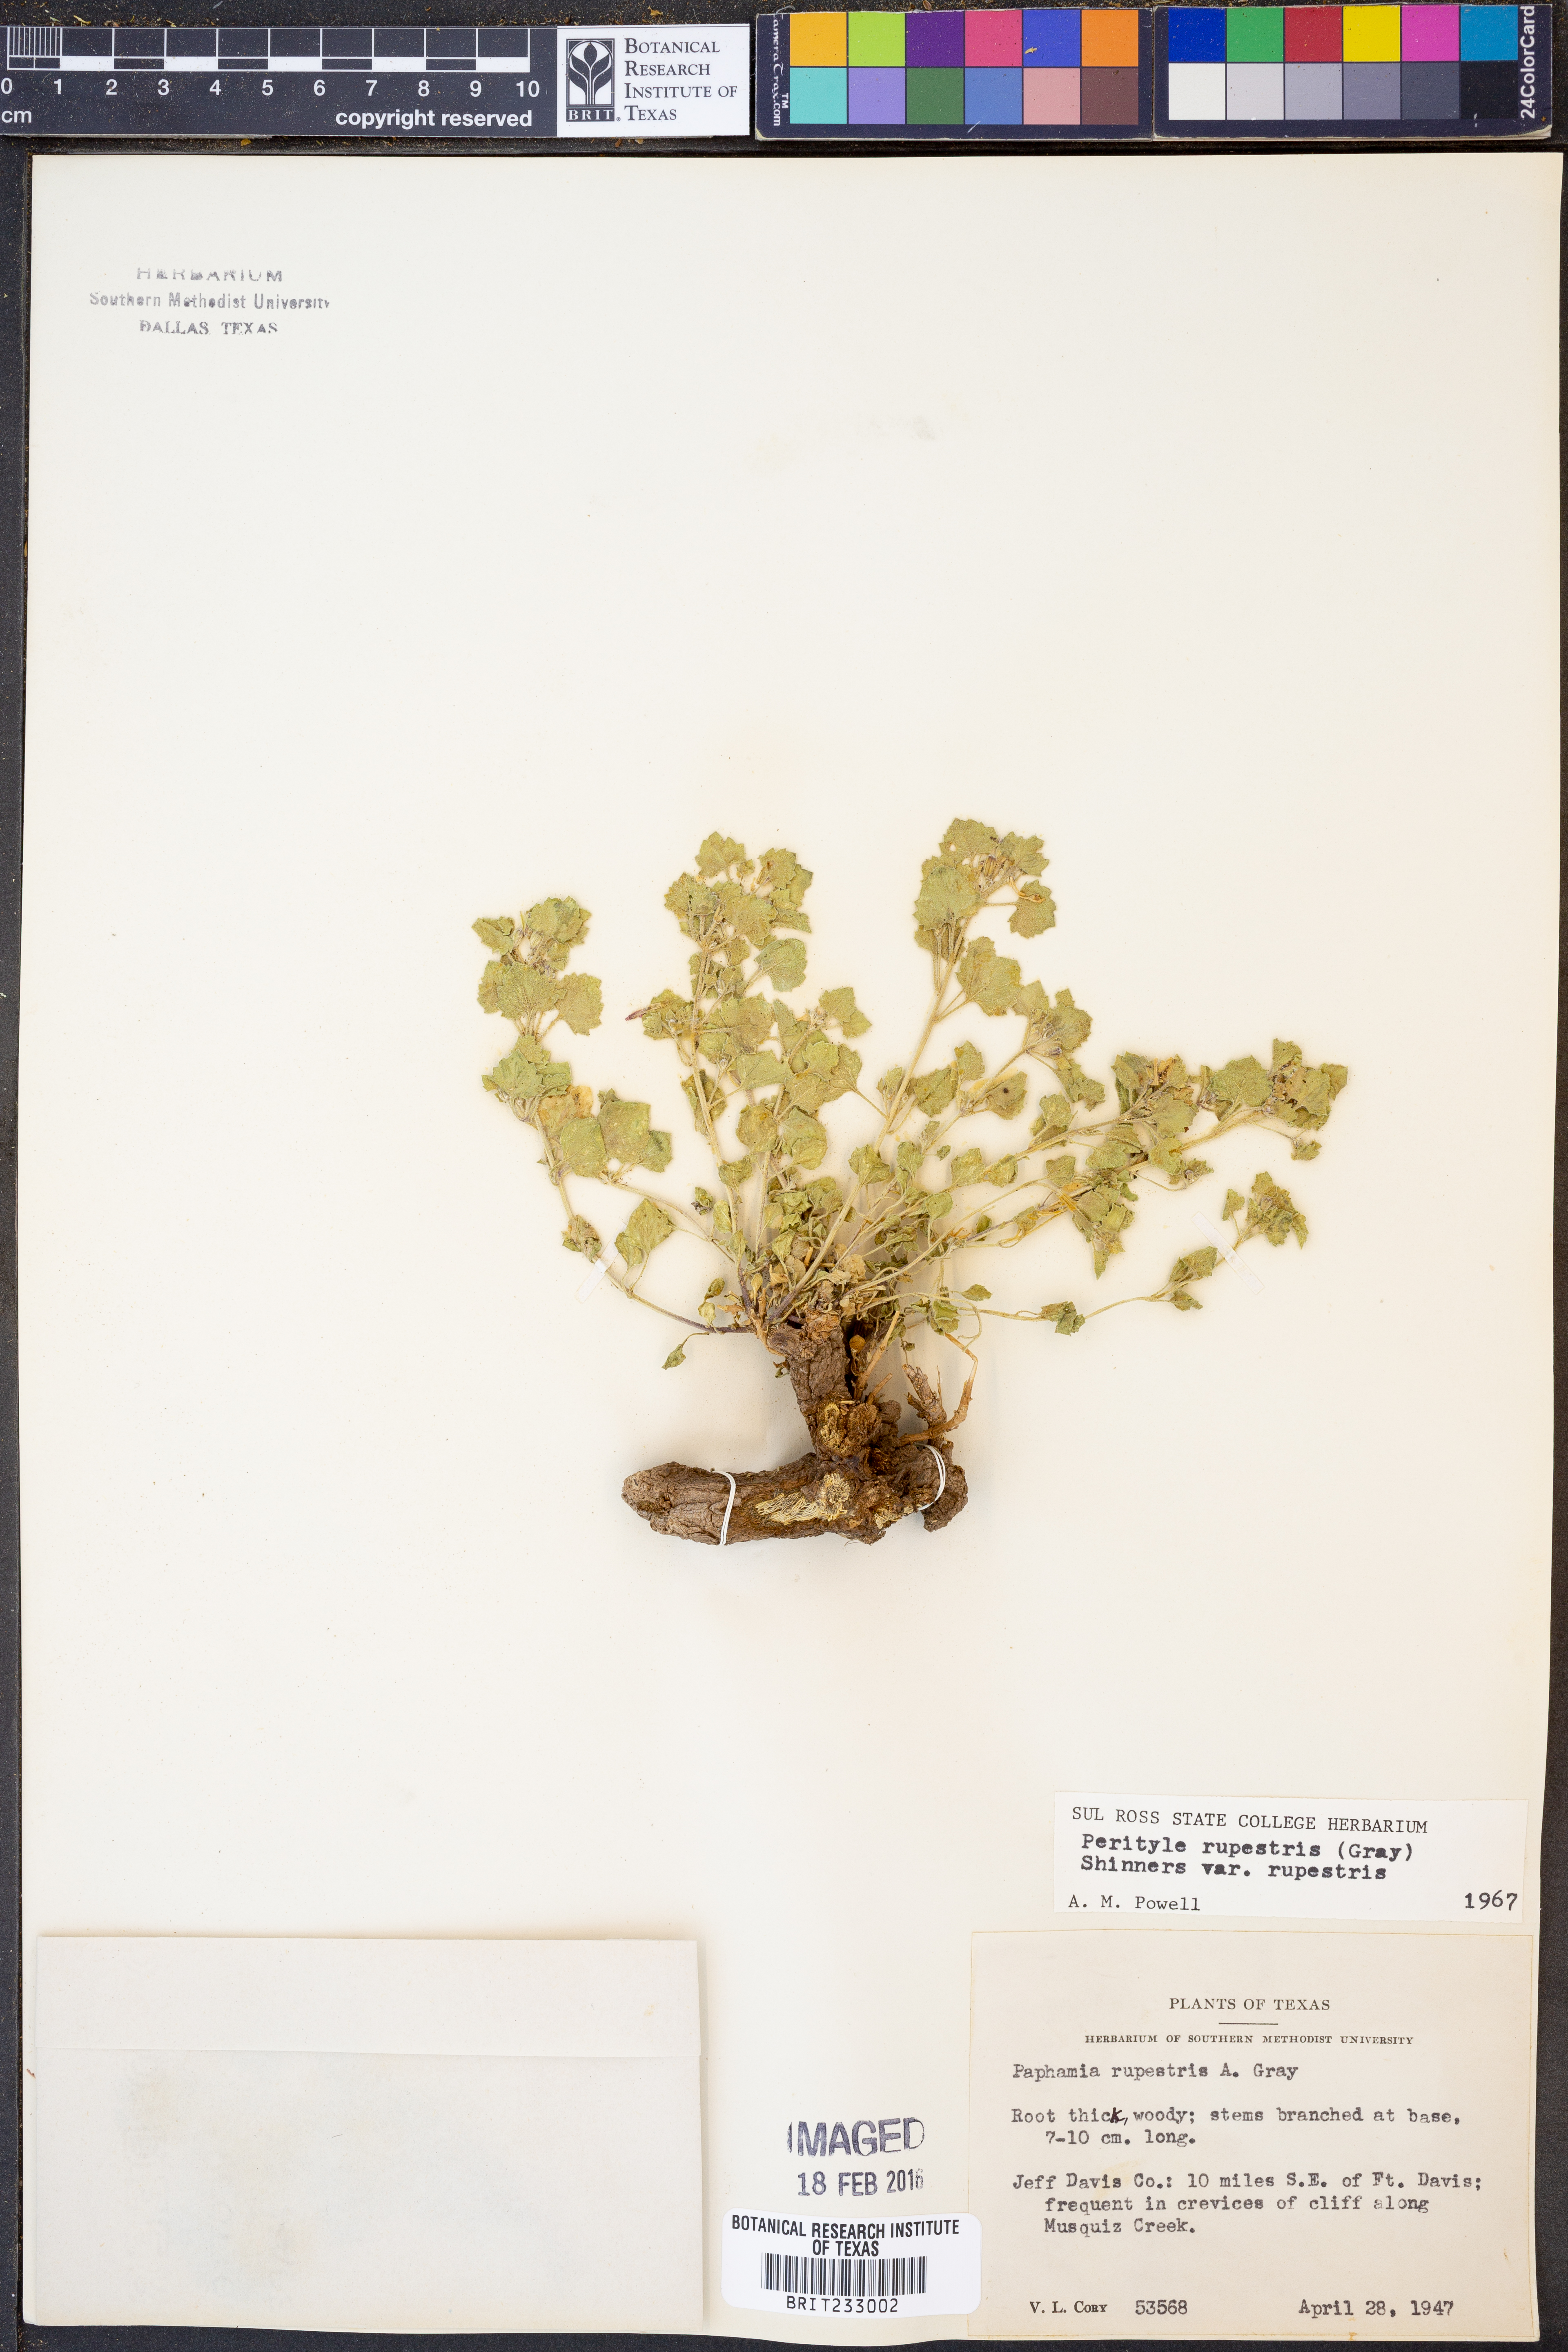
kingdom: Plantae
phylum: Tracheophyta
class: Magnoliopsida
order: Asterales
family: Asteraceae
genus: Laphamia
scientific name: Laphamia rupestris
